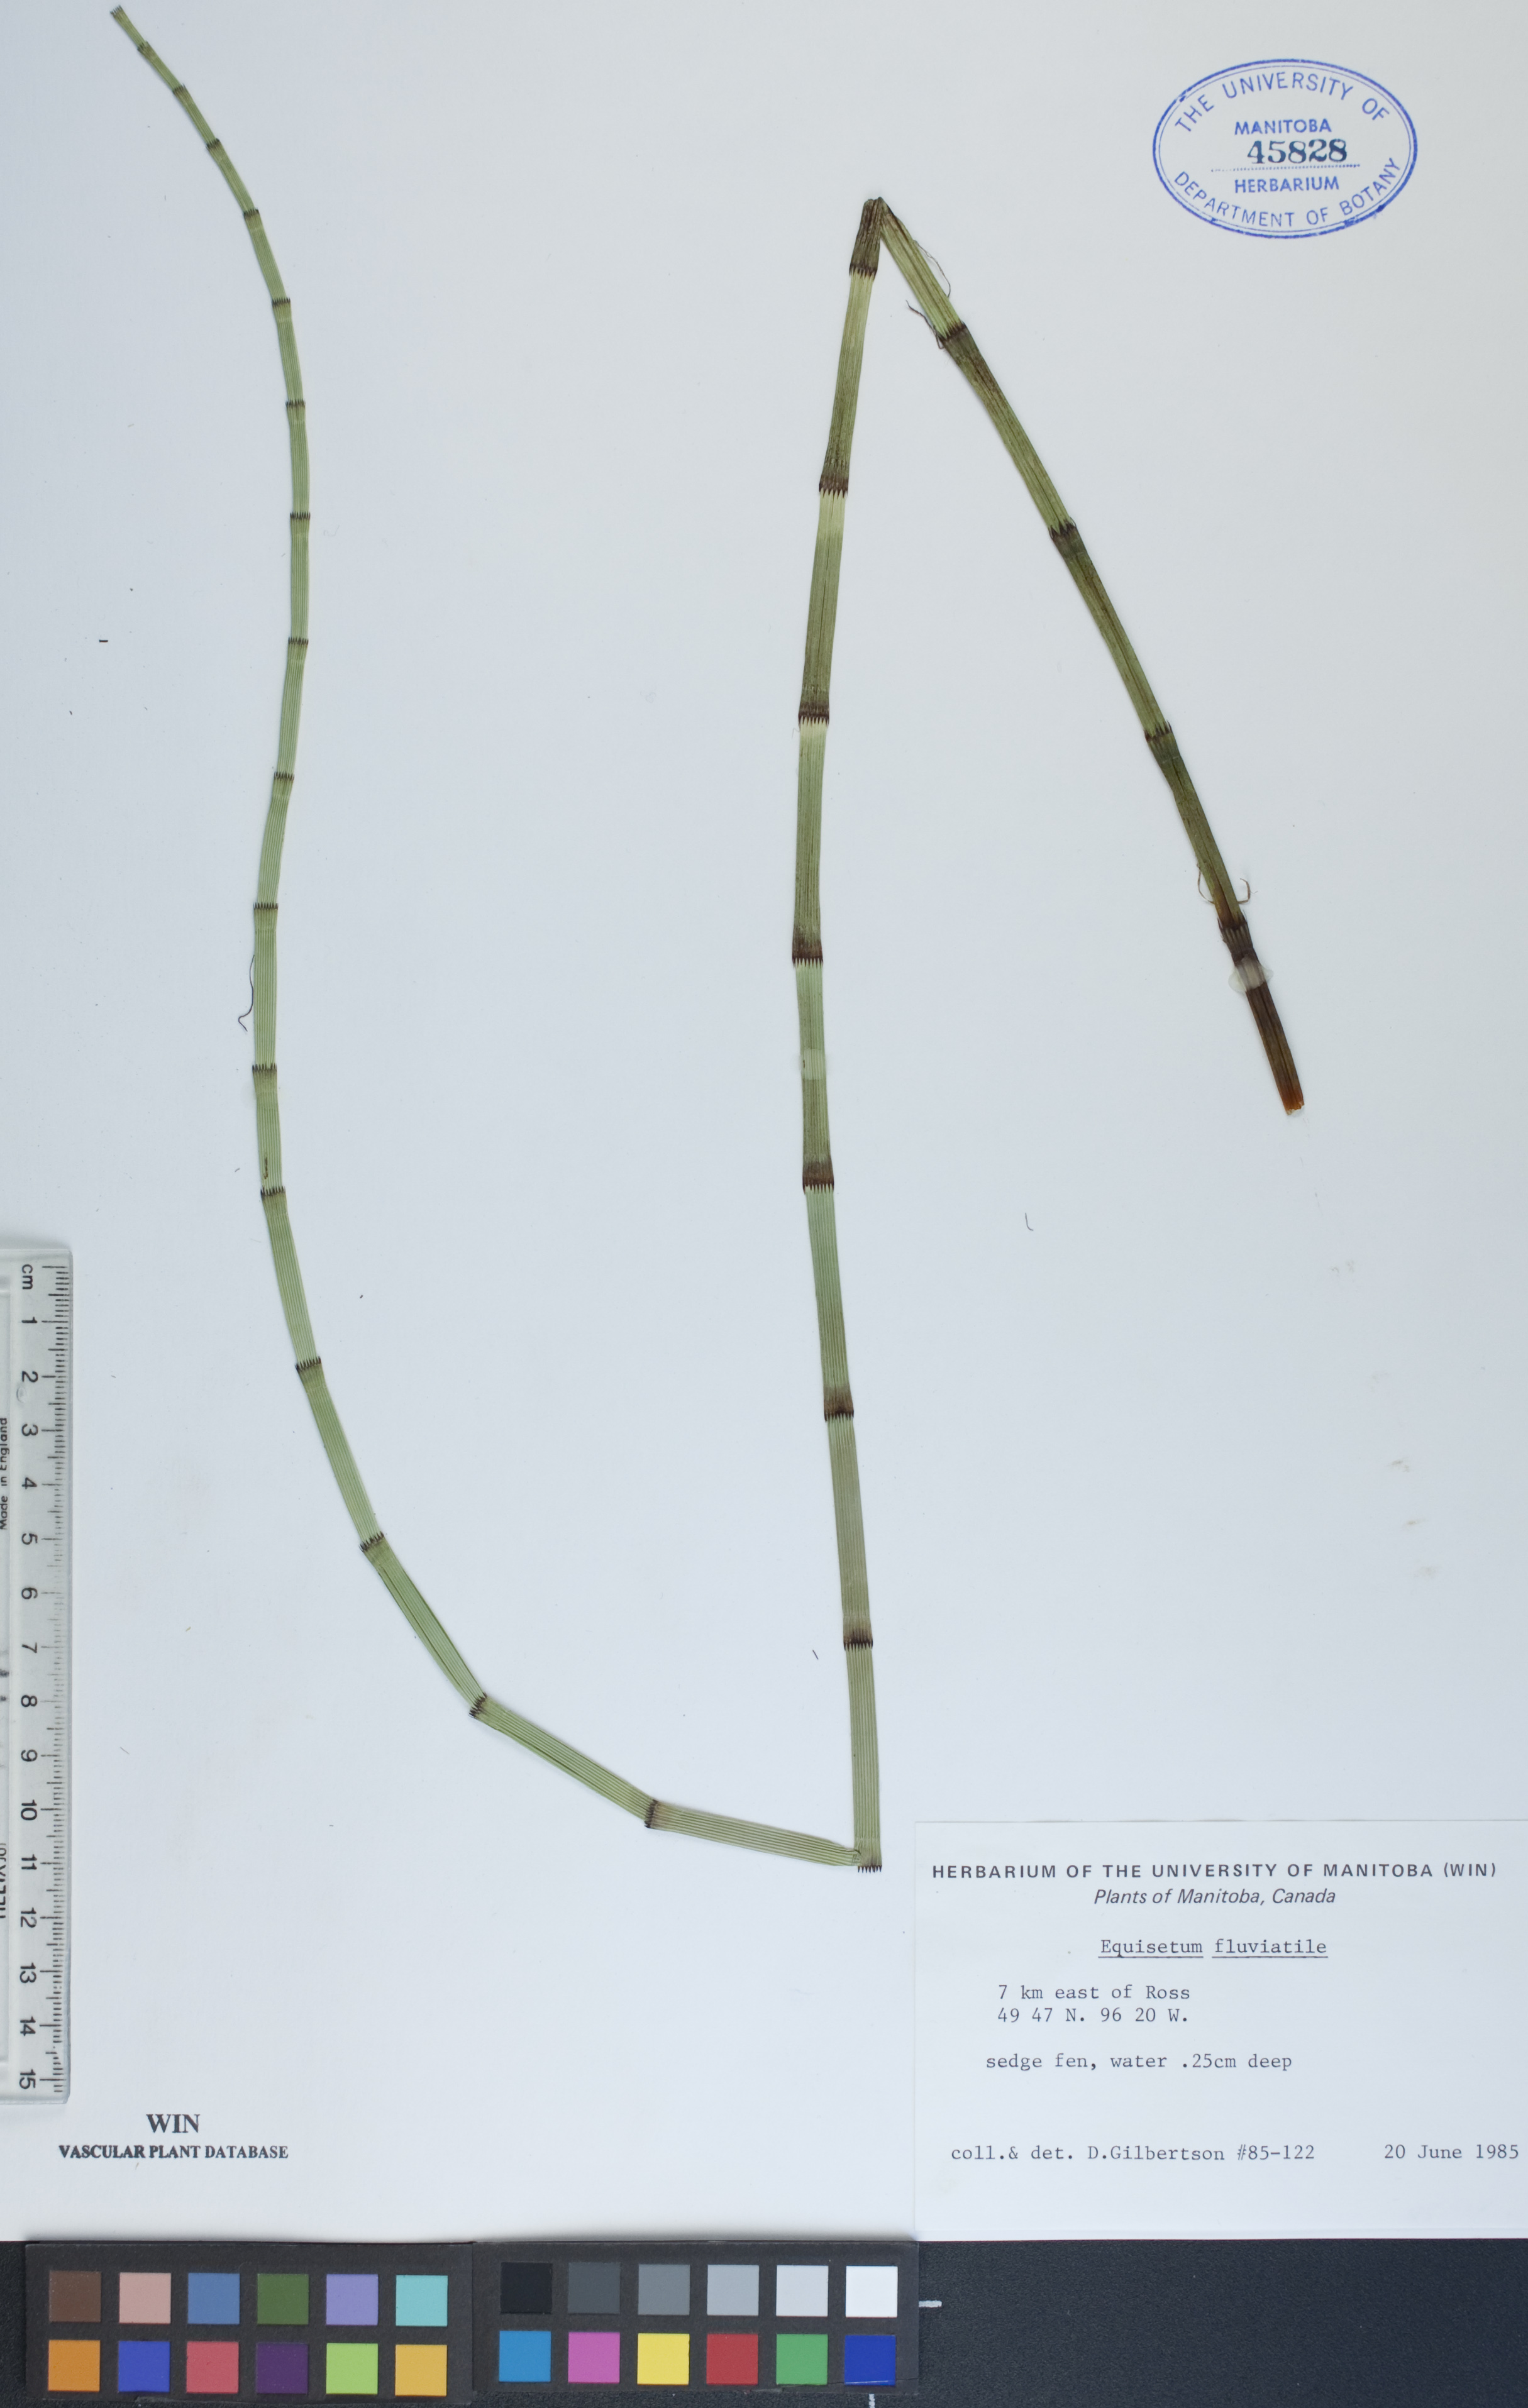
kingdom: Plantae
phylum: Tracheophyta
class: Polypodiopsida
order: Equisetales
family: Equisetaceae
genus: Equisetum
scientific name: Equisetum fluviatile
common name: Water horsetail
